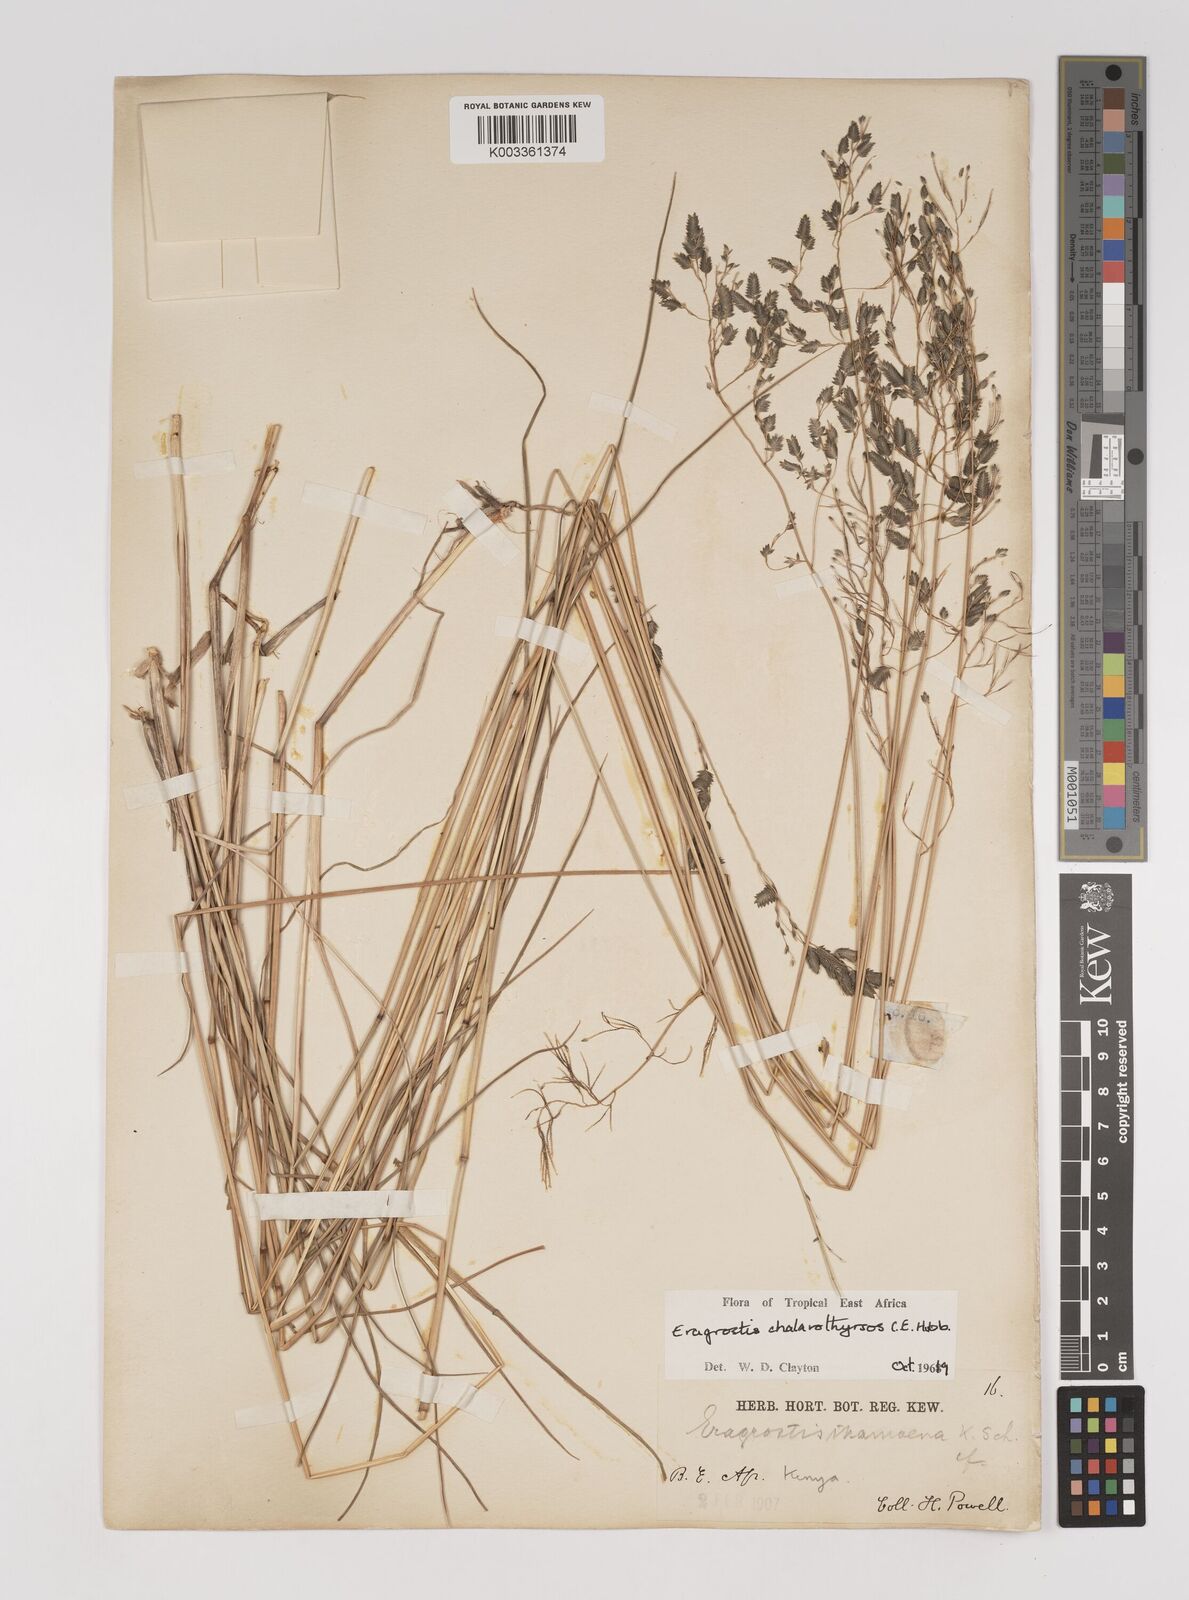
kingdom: Plantae
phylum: Tracheophyta
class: Liliopsida
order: Poales
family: Poaceae
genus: Eragrostis
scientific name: Eragrostis chalarothyrsos
